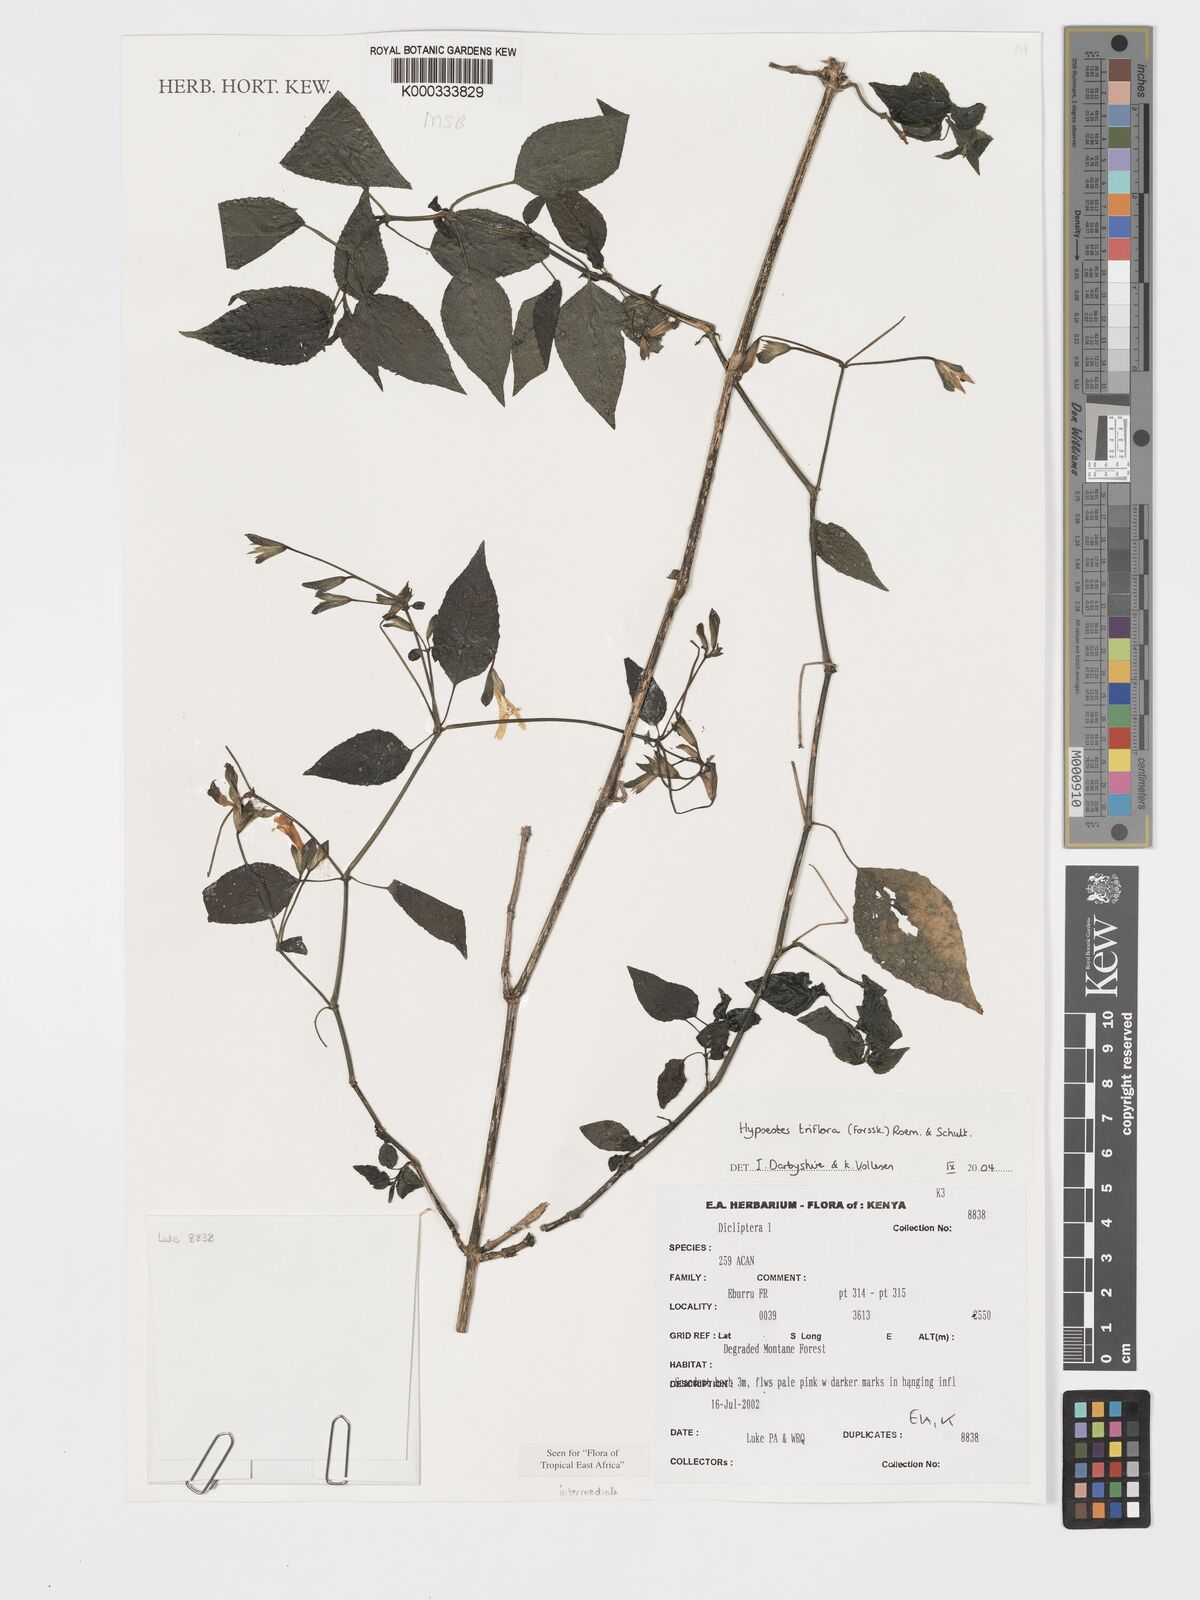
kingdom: Plantae
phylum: Tracheophyta
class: Magnoliopsida
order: Lamiales
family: Acanthaceae
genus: Hypoestes
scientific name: Hypoestes triflora
